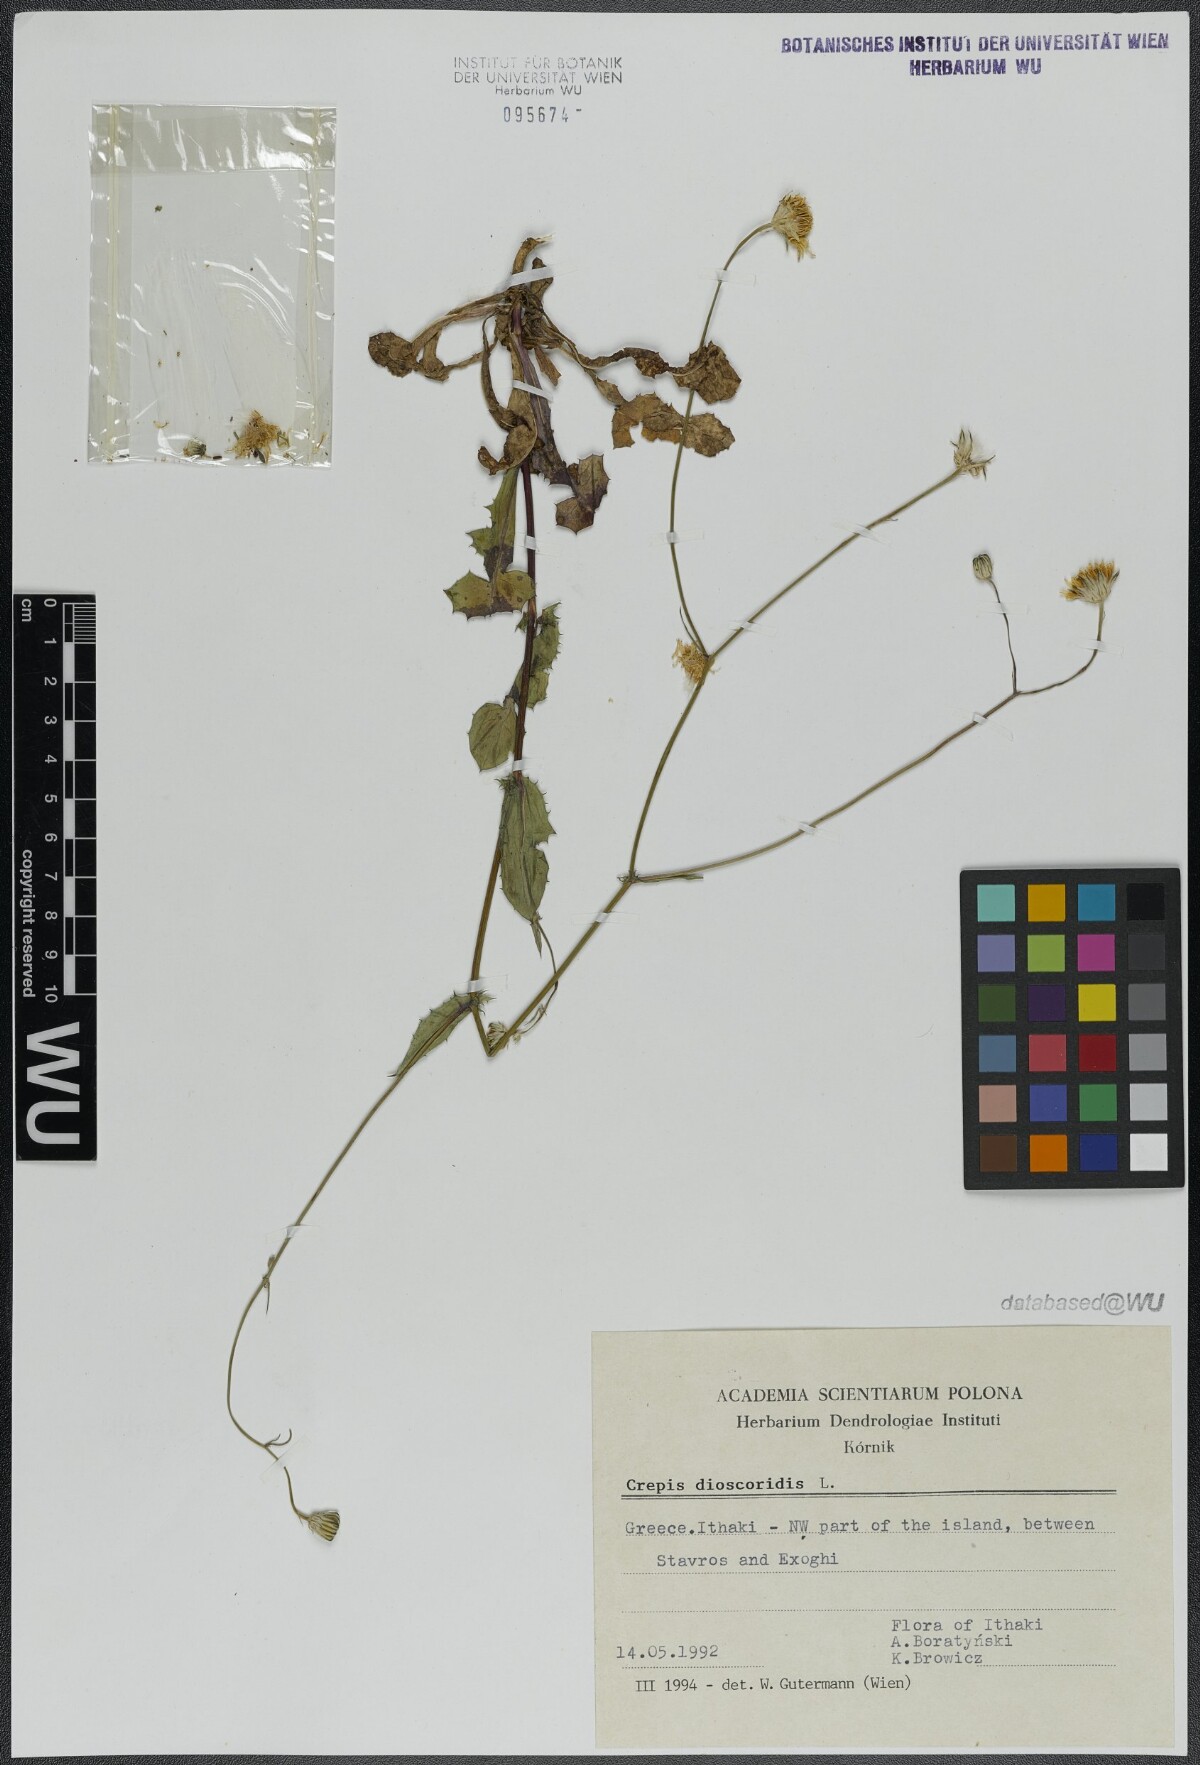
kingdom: Plantae
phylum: Tracheophyta
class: Magnoliopsida
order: Asterales
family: Asteraceae
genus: Crepis
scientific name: Crepis dioscoridis
